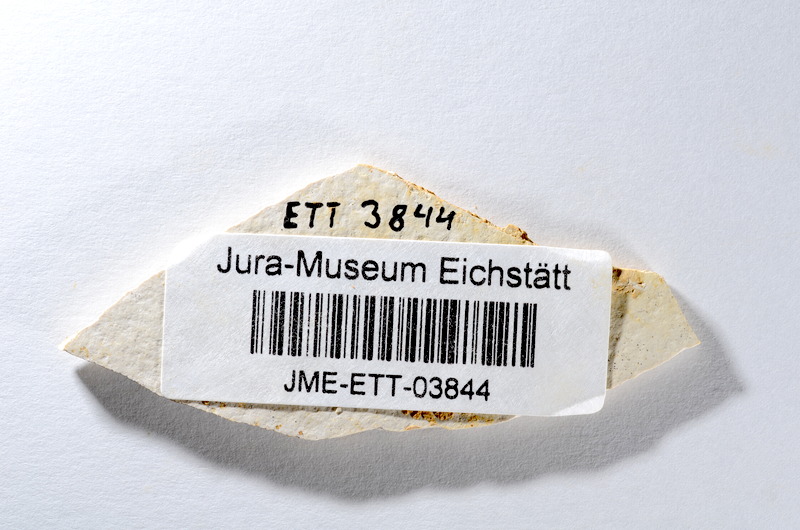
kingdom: Animalia
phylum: Chordata
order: Salmoniformes
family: Orthogonikleithridae
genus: Orthogonikleithrus
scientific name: Orthogonikleithrus hoelli
